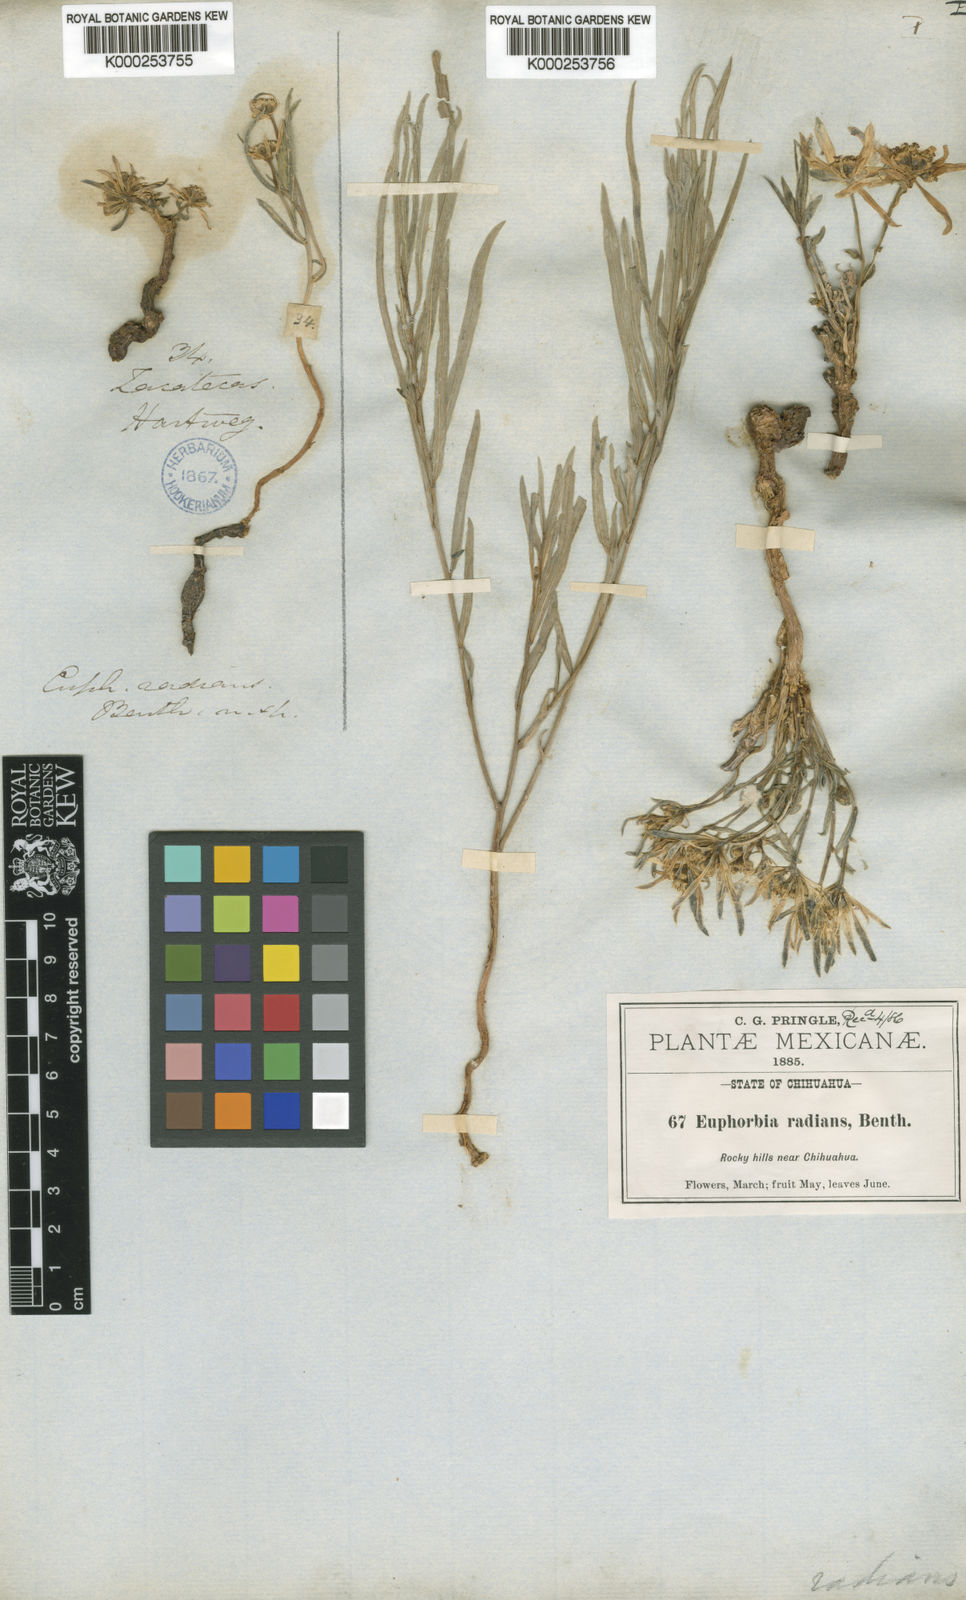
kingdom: Plantae
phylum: Tracheophyta
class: Magnoliopsida
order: Malpighiales
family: Euphorbiaceae
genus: Euphorbia
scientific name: Euphorbia radians
